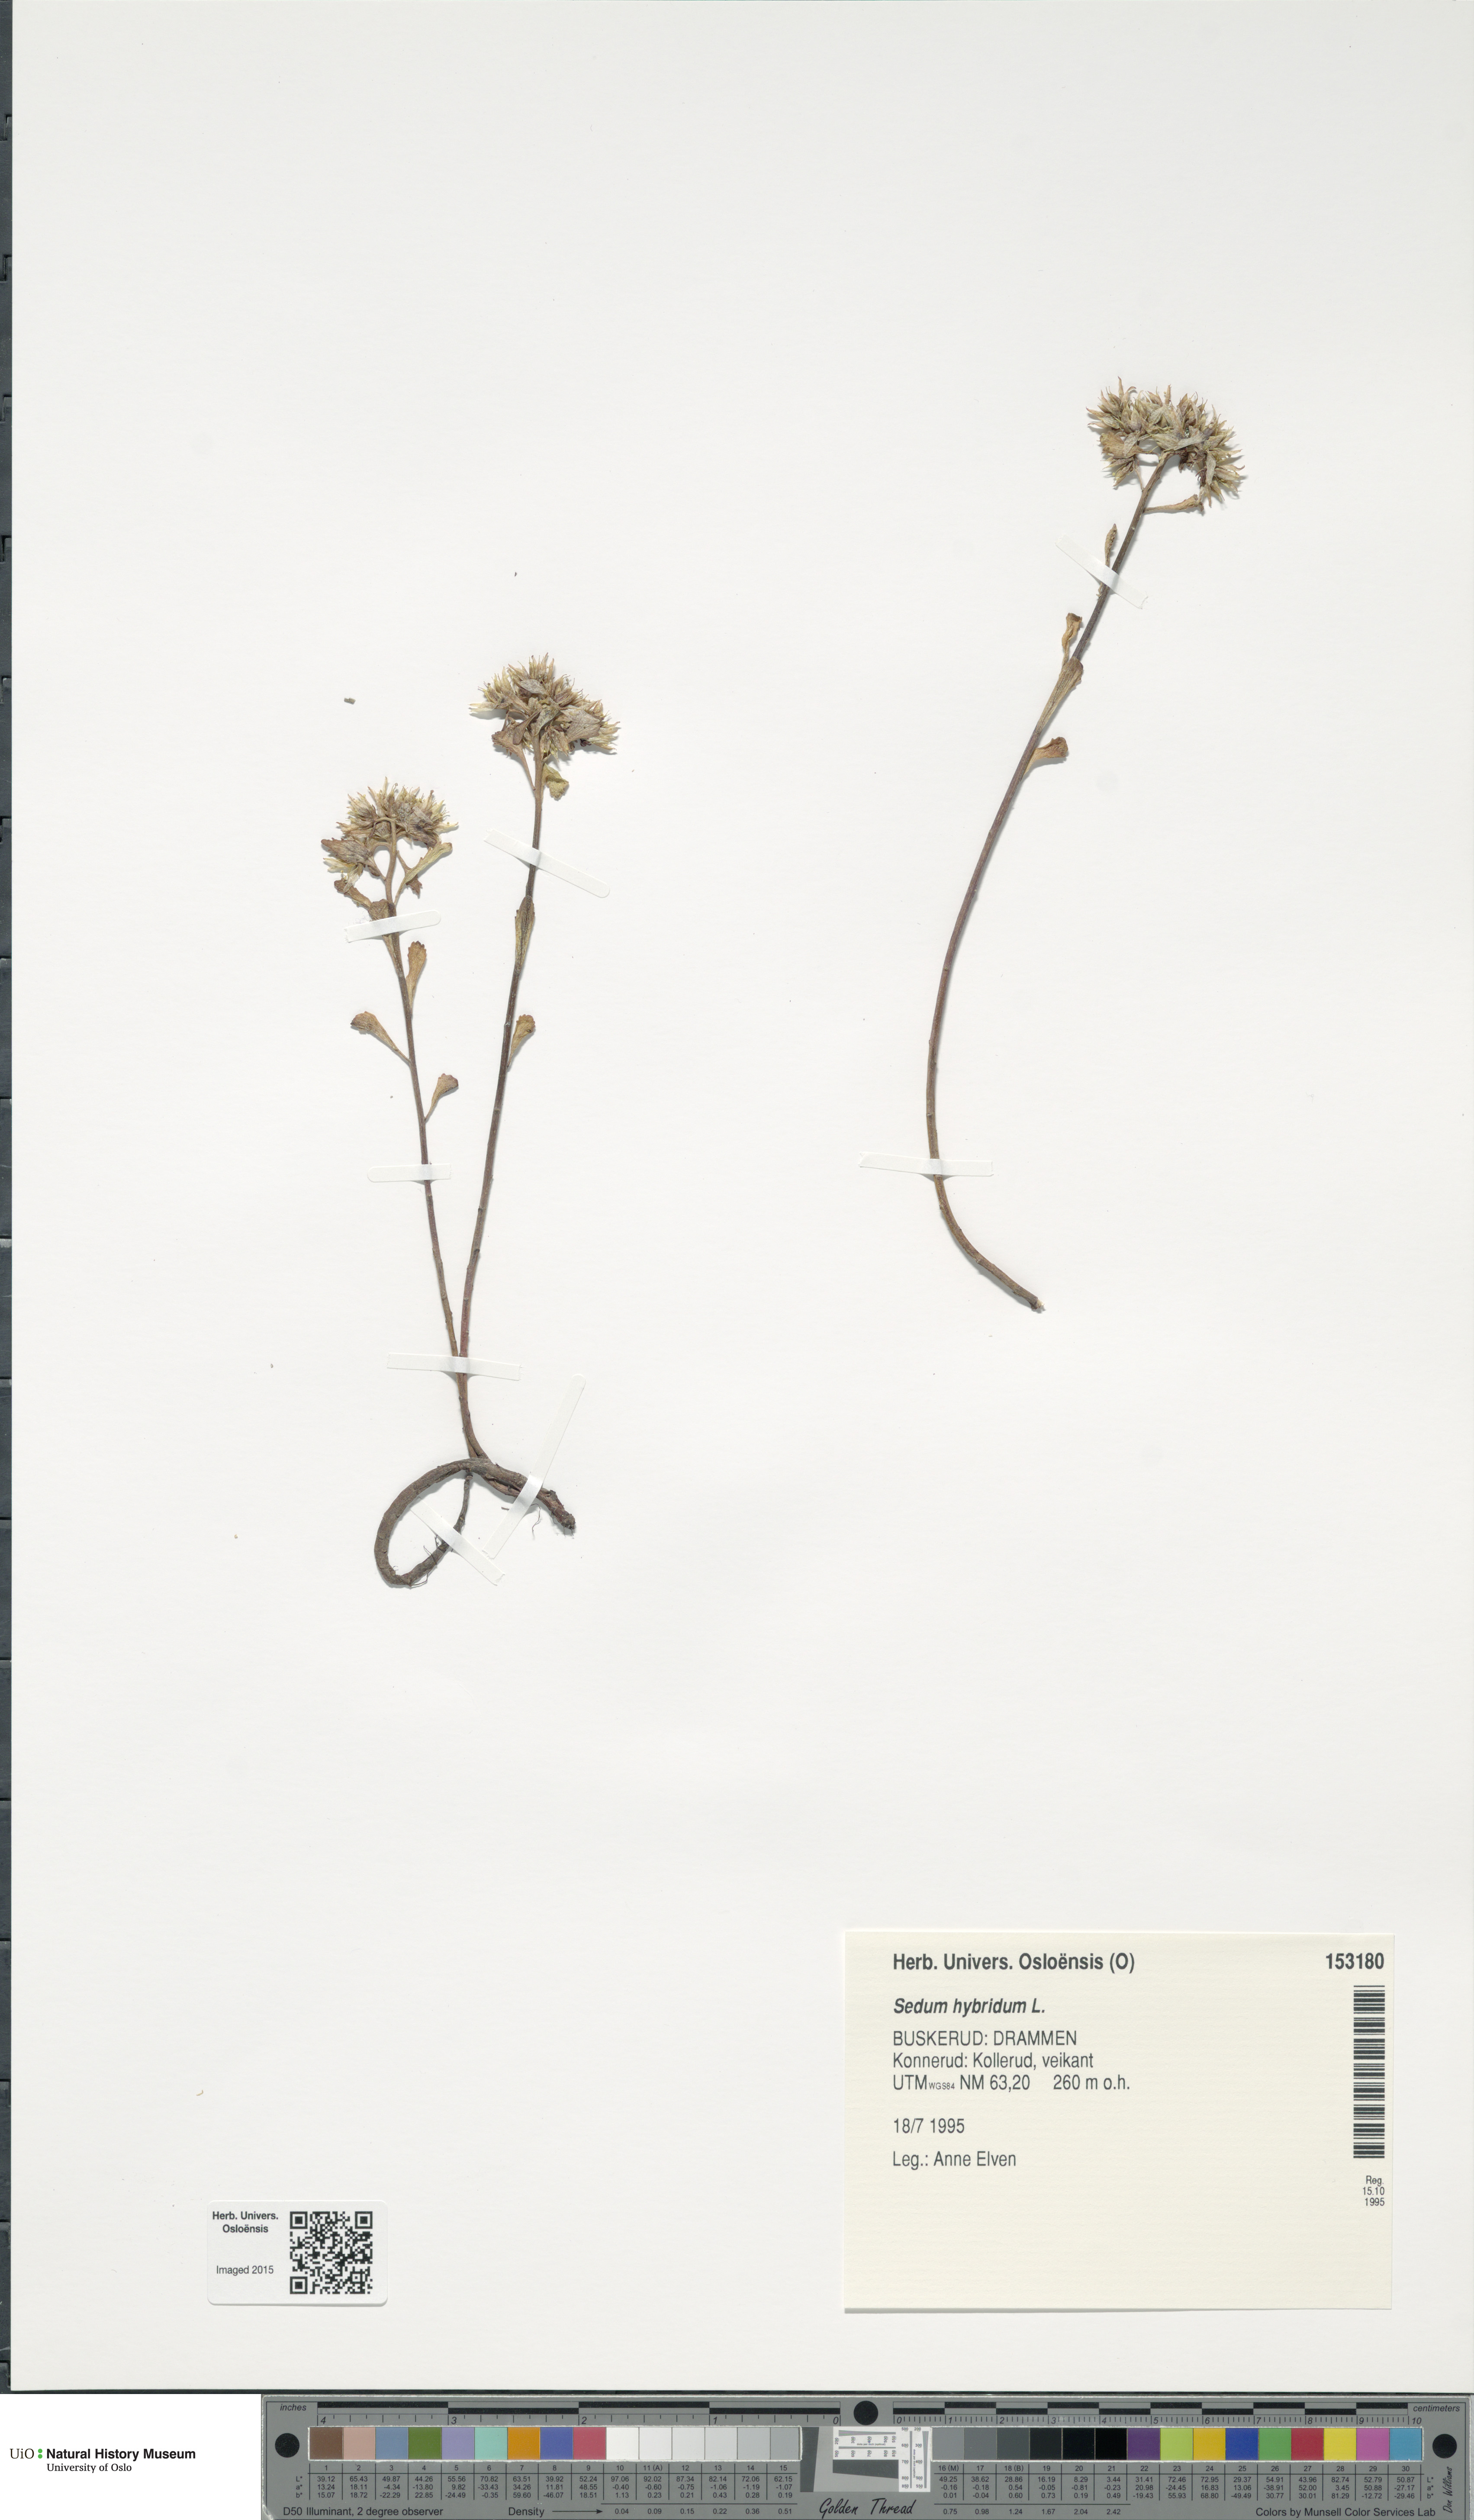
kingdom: Plantae
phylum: Tracheophyta
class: Magnoliopsida
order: Saxifragales
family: Crassulaceae
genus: Phedimus
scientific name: Phedimus hybridus
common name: Hybrid stonecrop
